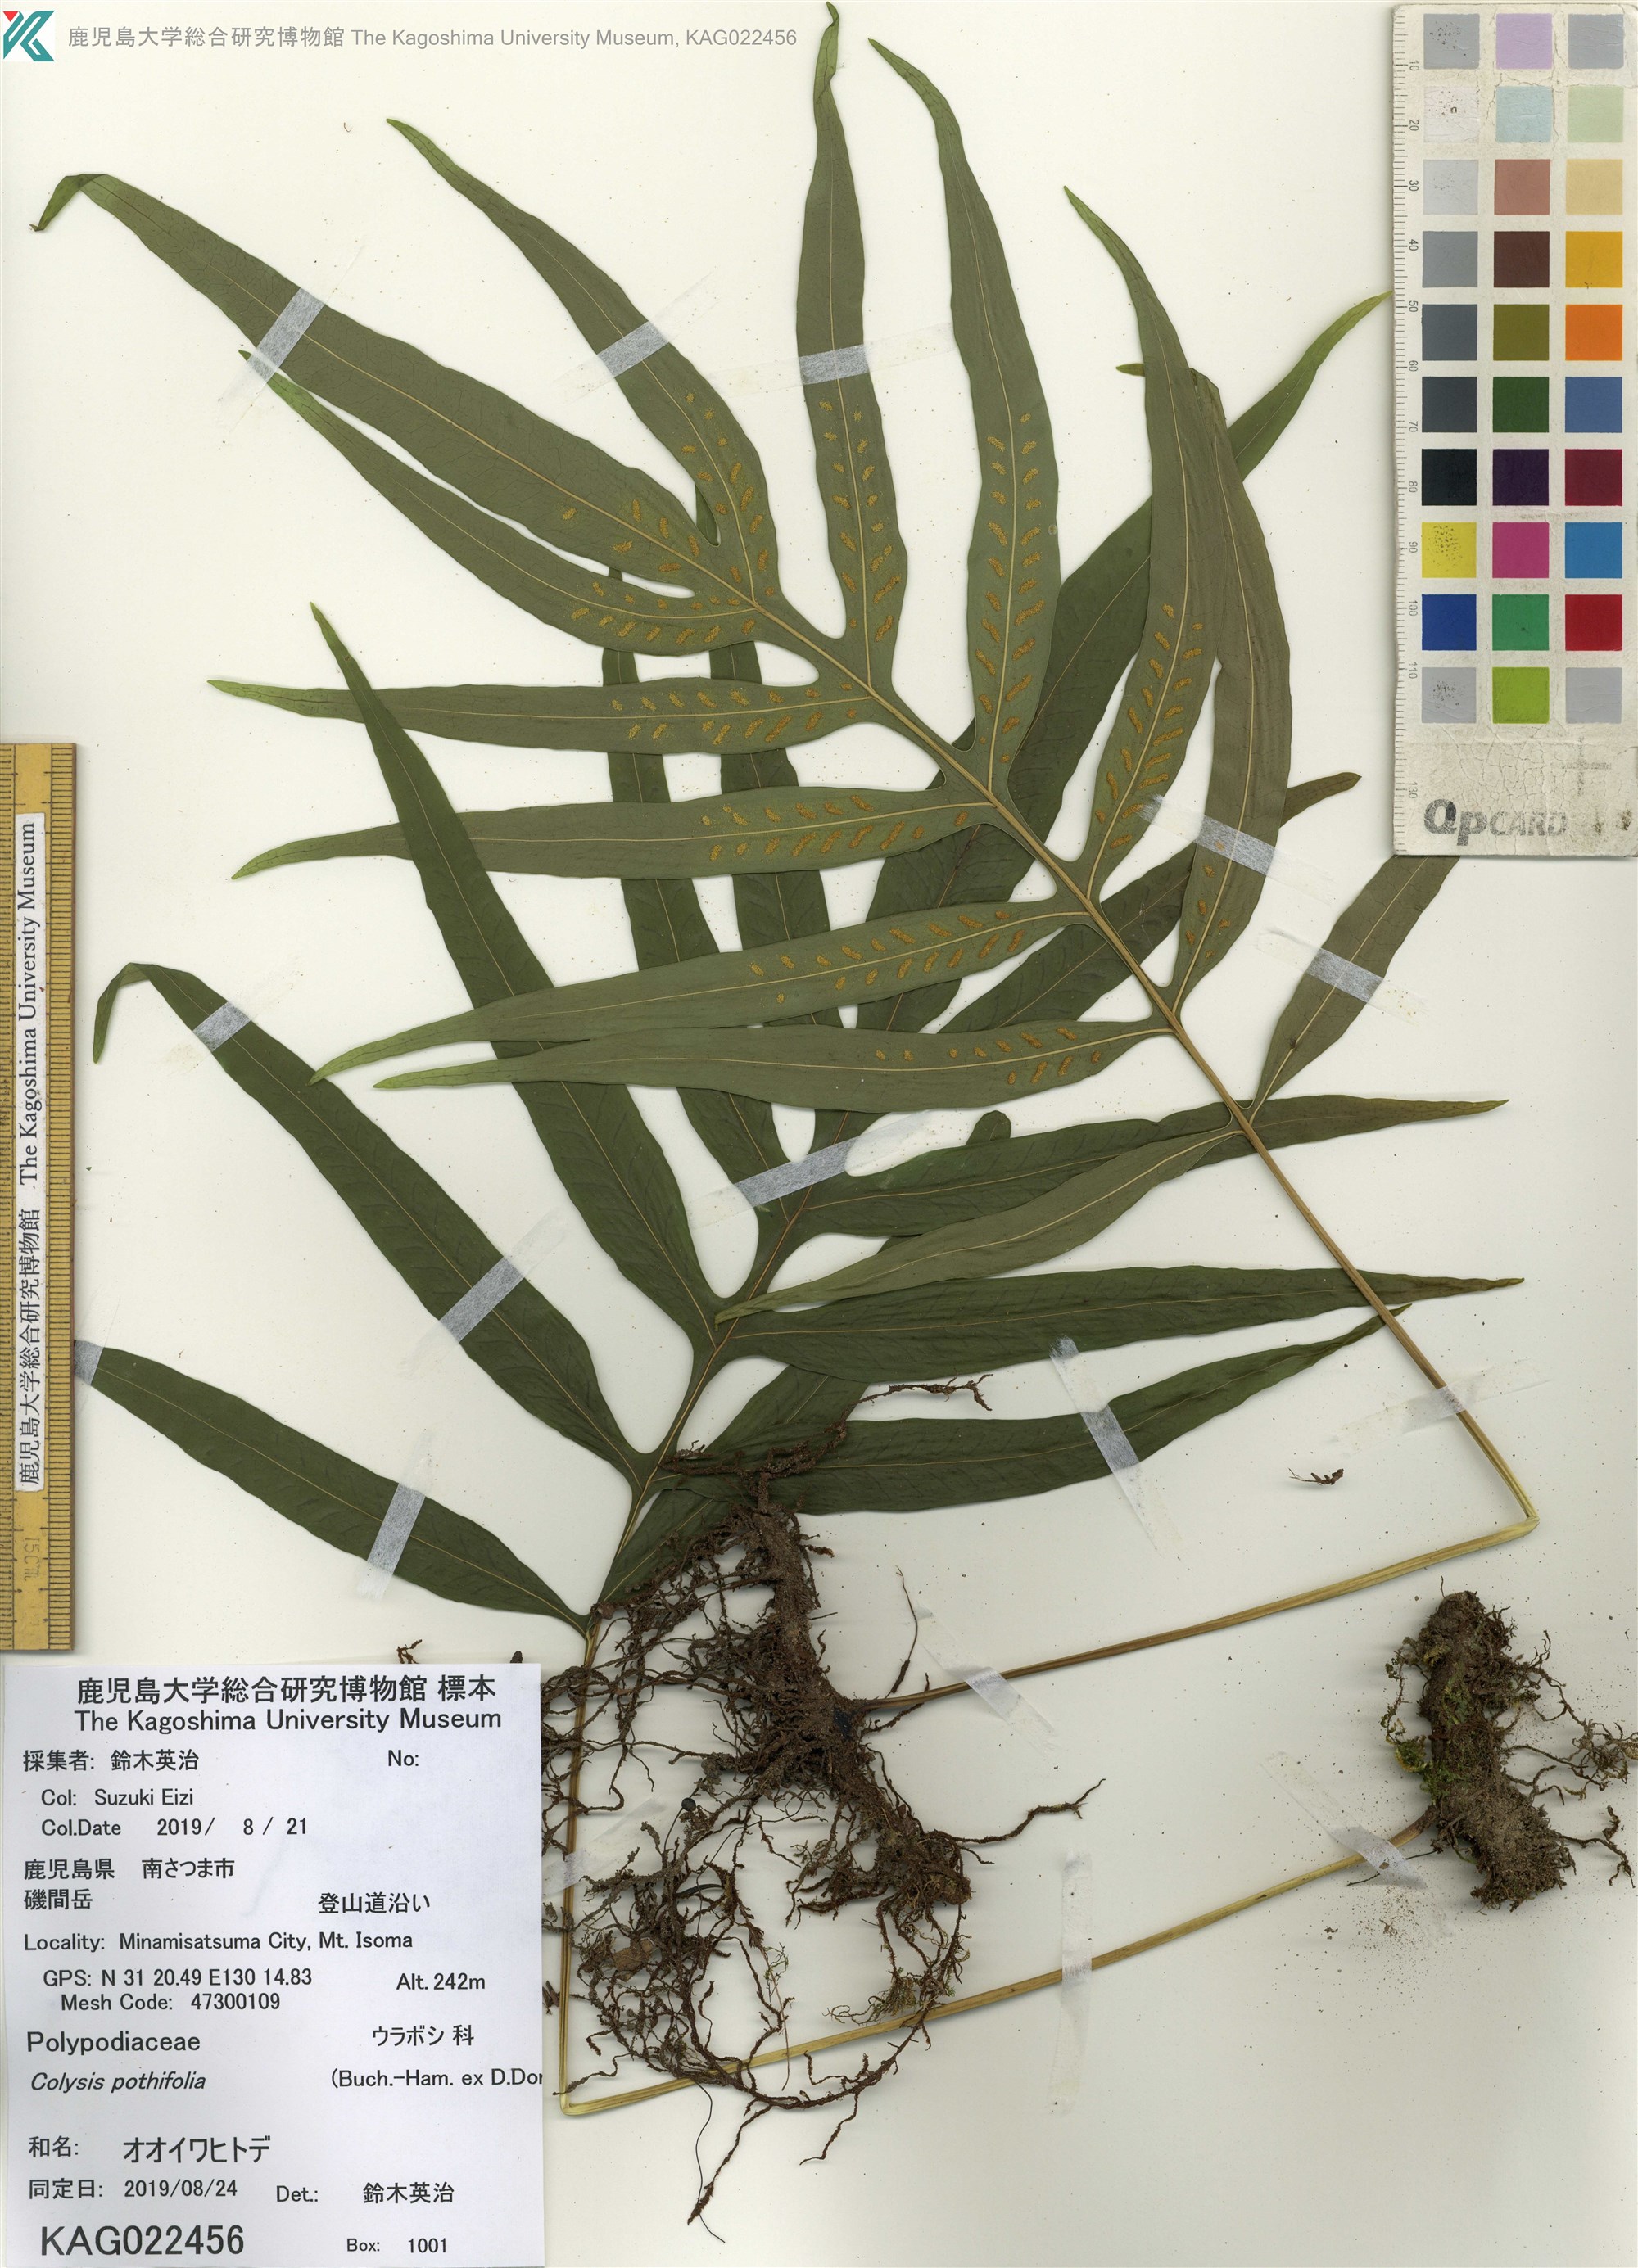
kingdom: Plantae
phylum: Tracheophyta
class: Polypodiopsida
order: Polypodiales
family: Polypodiaceae
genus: Leptochilus
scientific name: Leptochilus ellipticus
